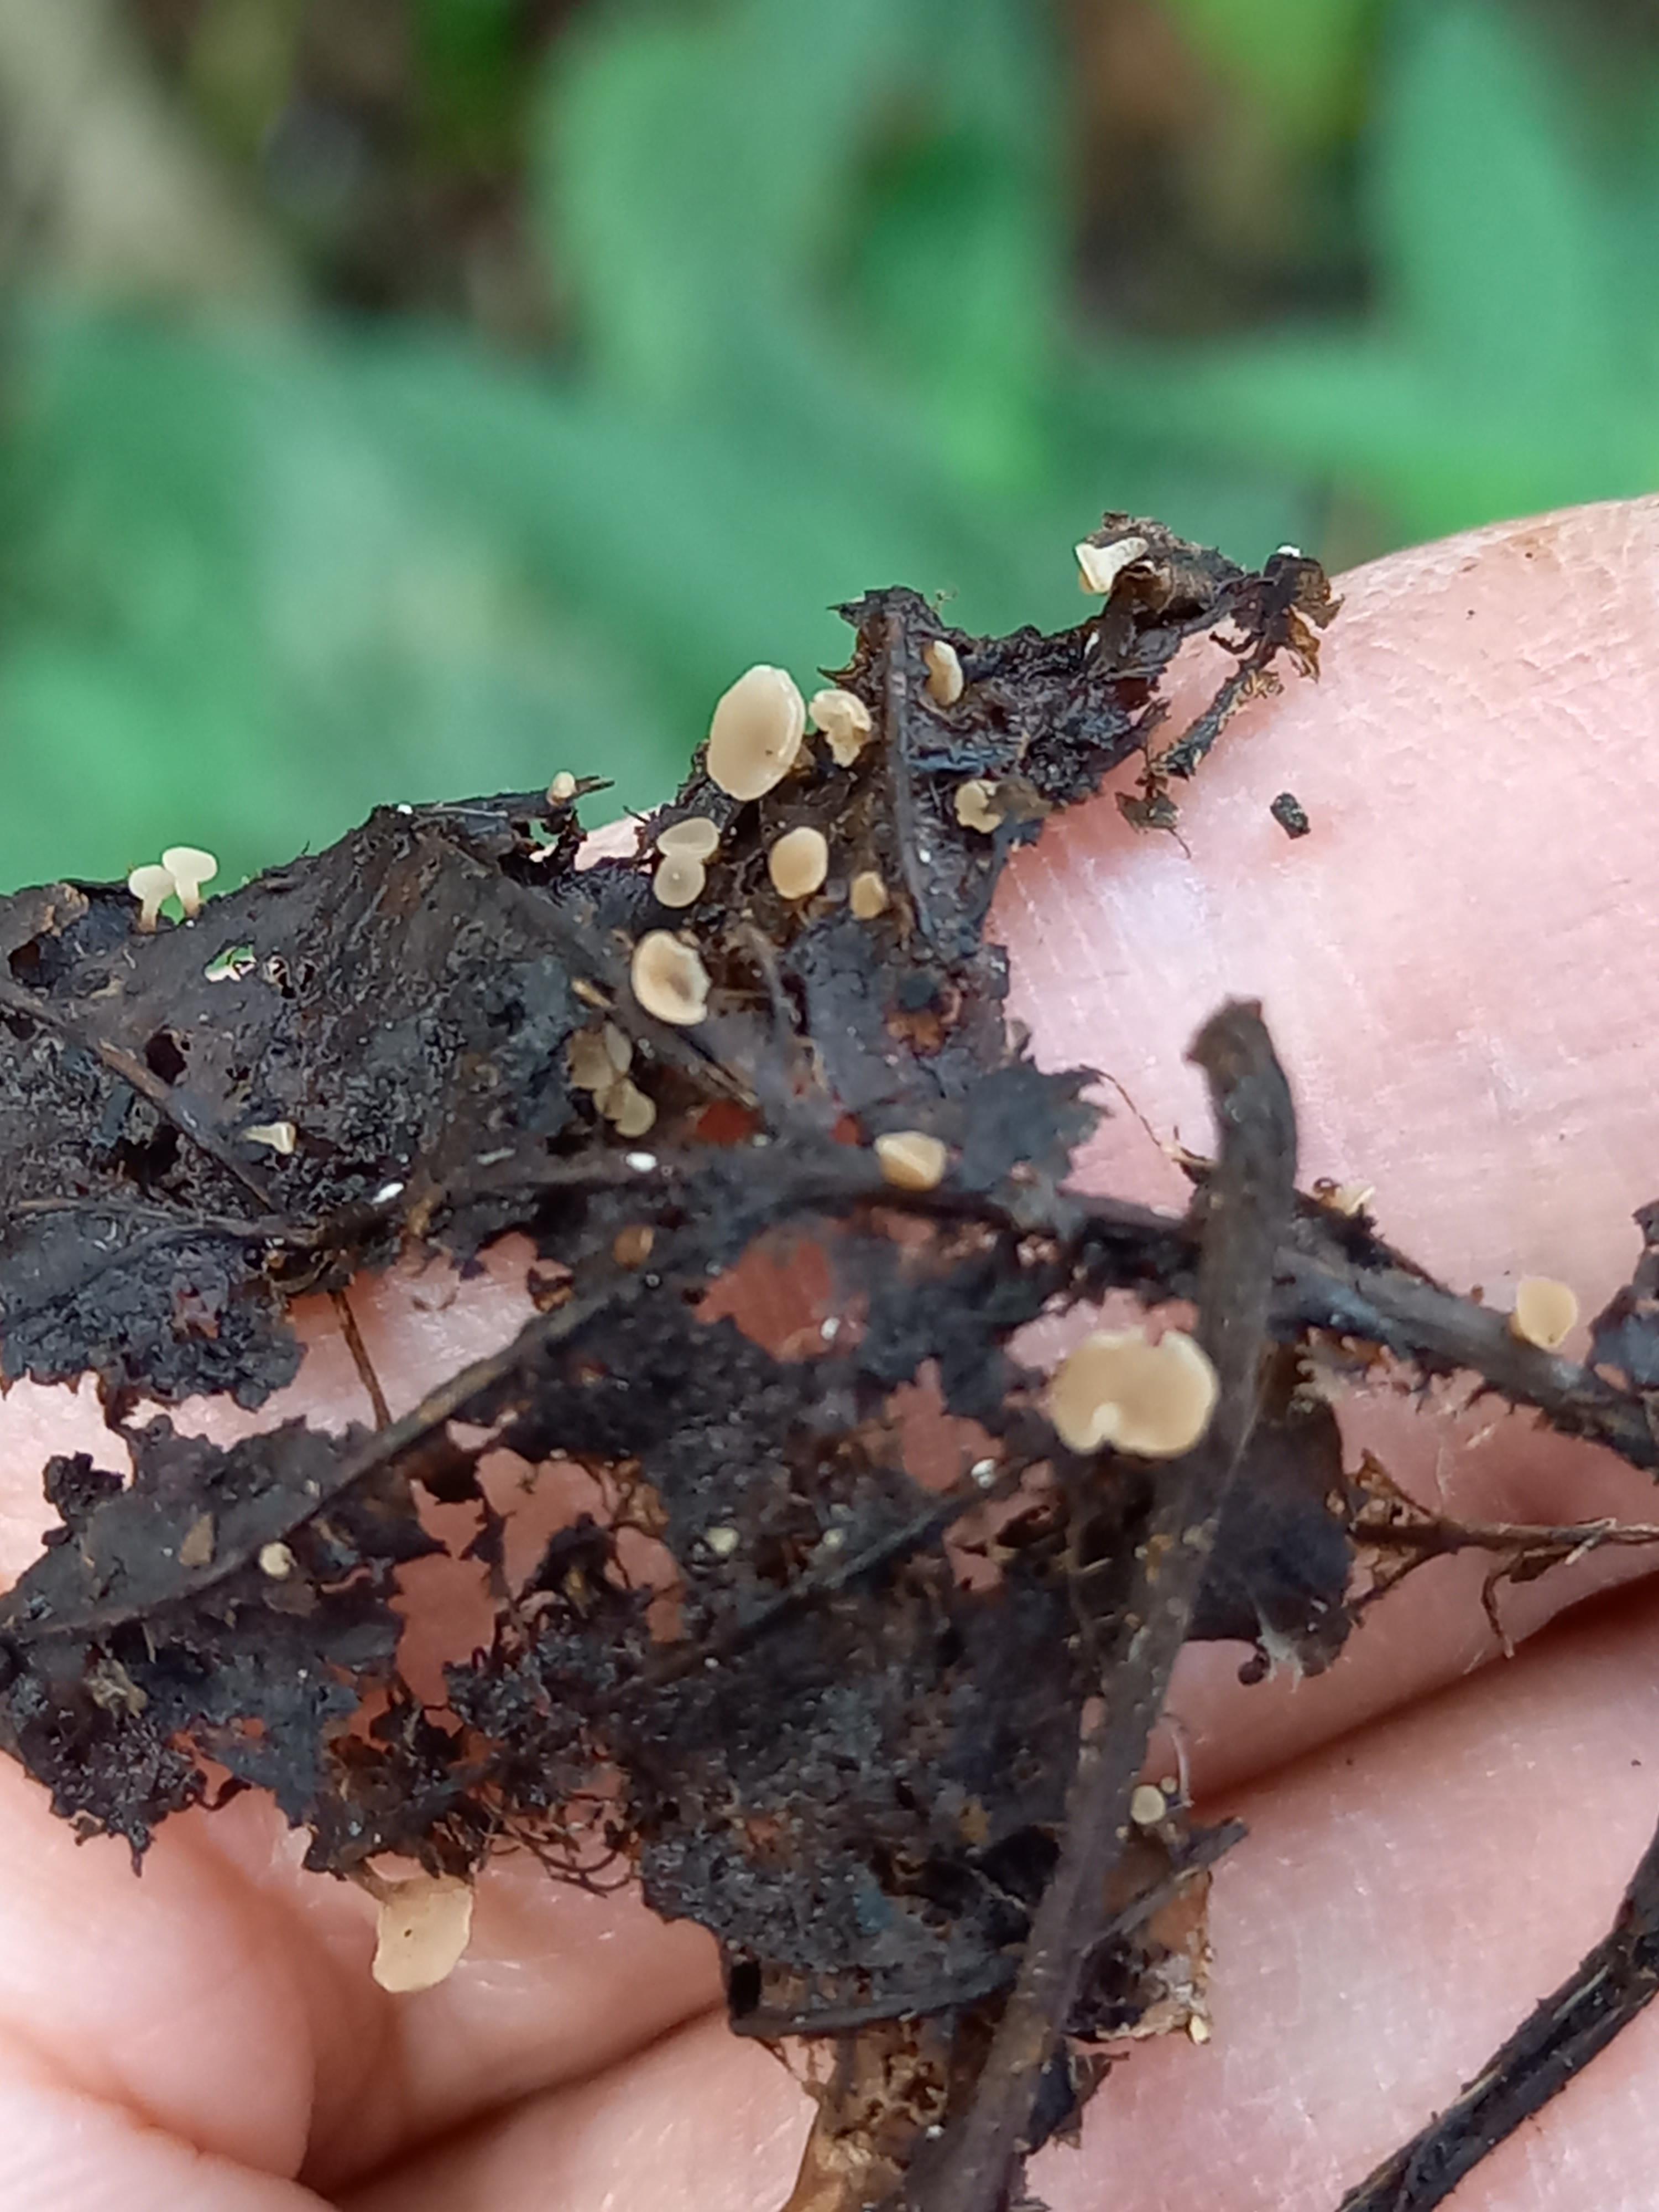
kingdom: Fungi
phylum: Ascomycota
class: Leotiomycetes
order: Helotiales
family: Rutstroemiaceae
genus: Rutstroemia
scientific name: Rutstroemia conformata
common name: elleblads-brunskive
